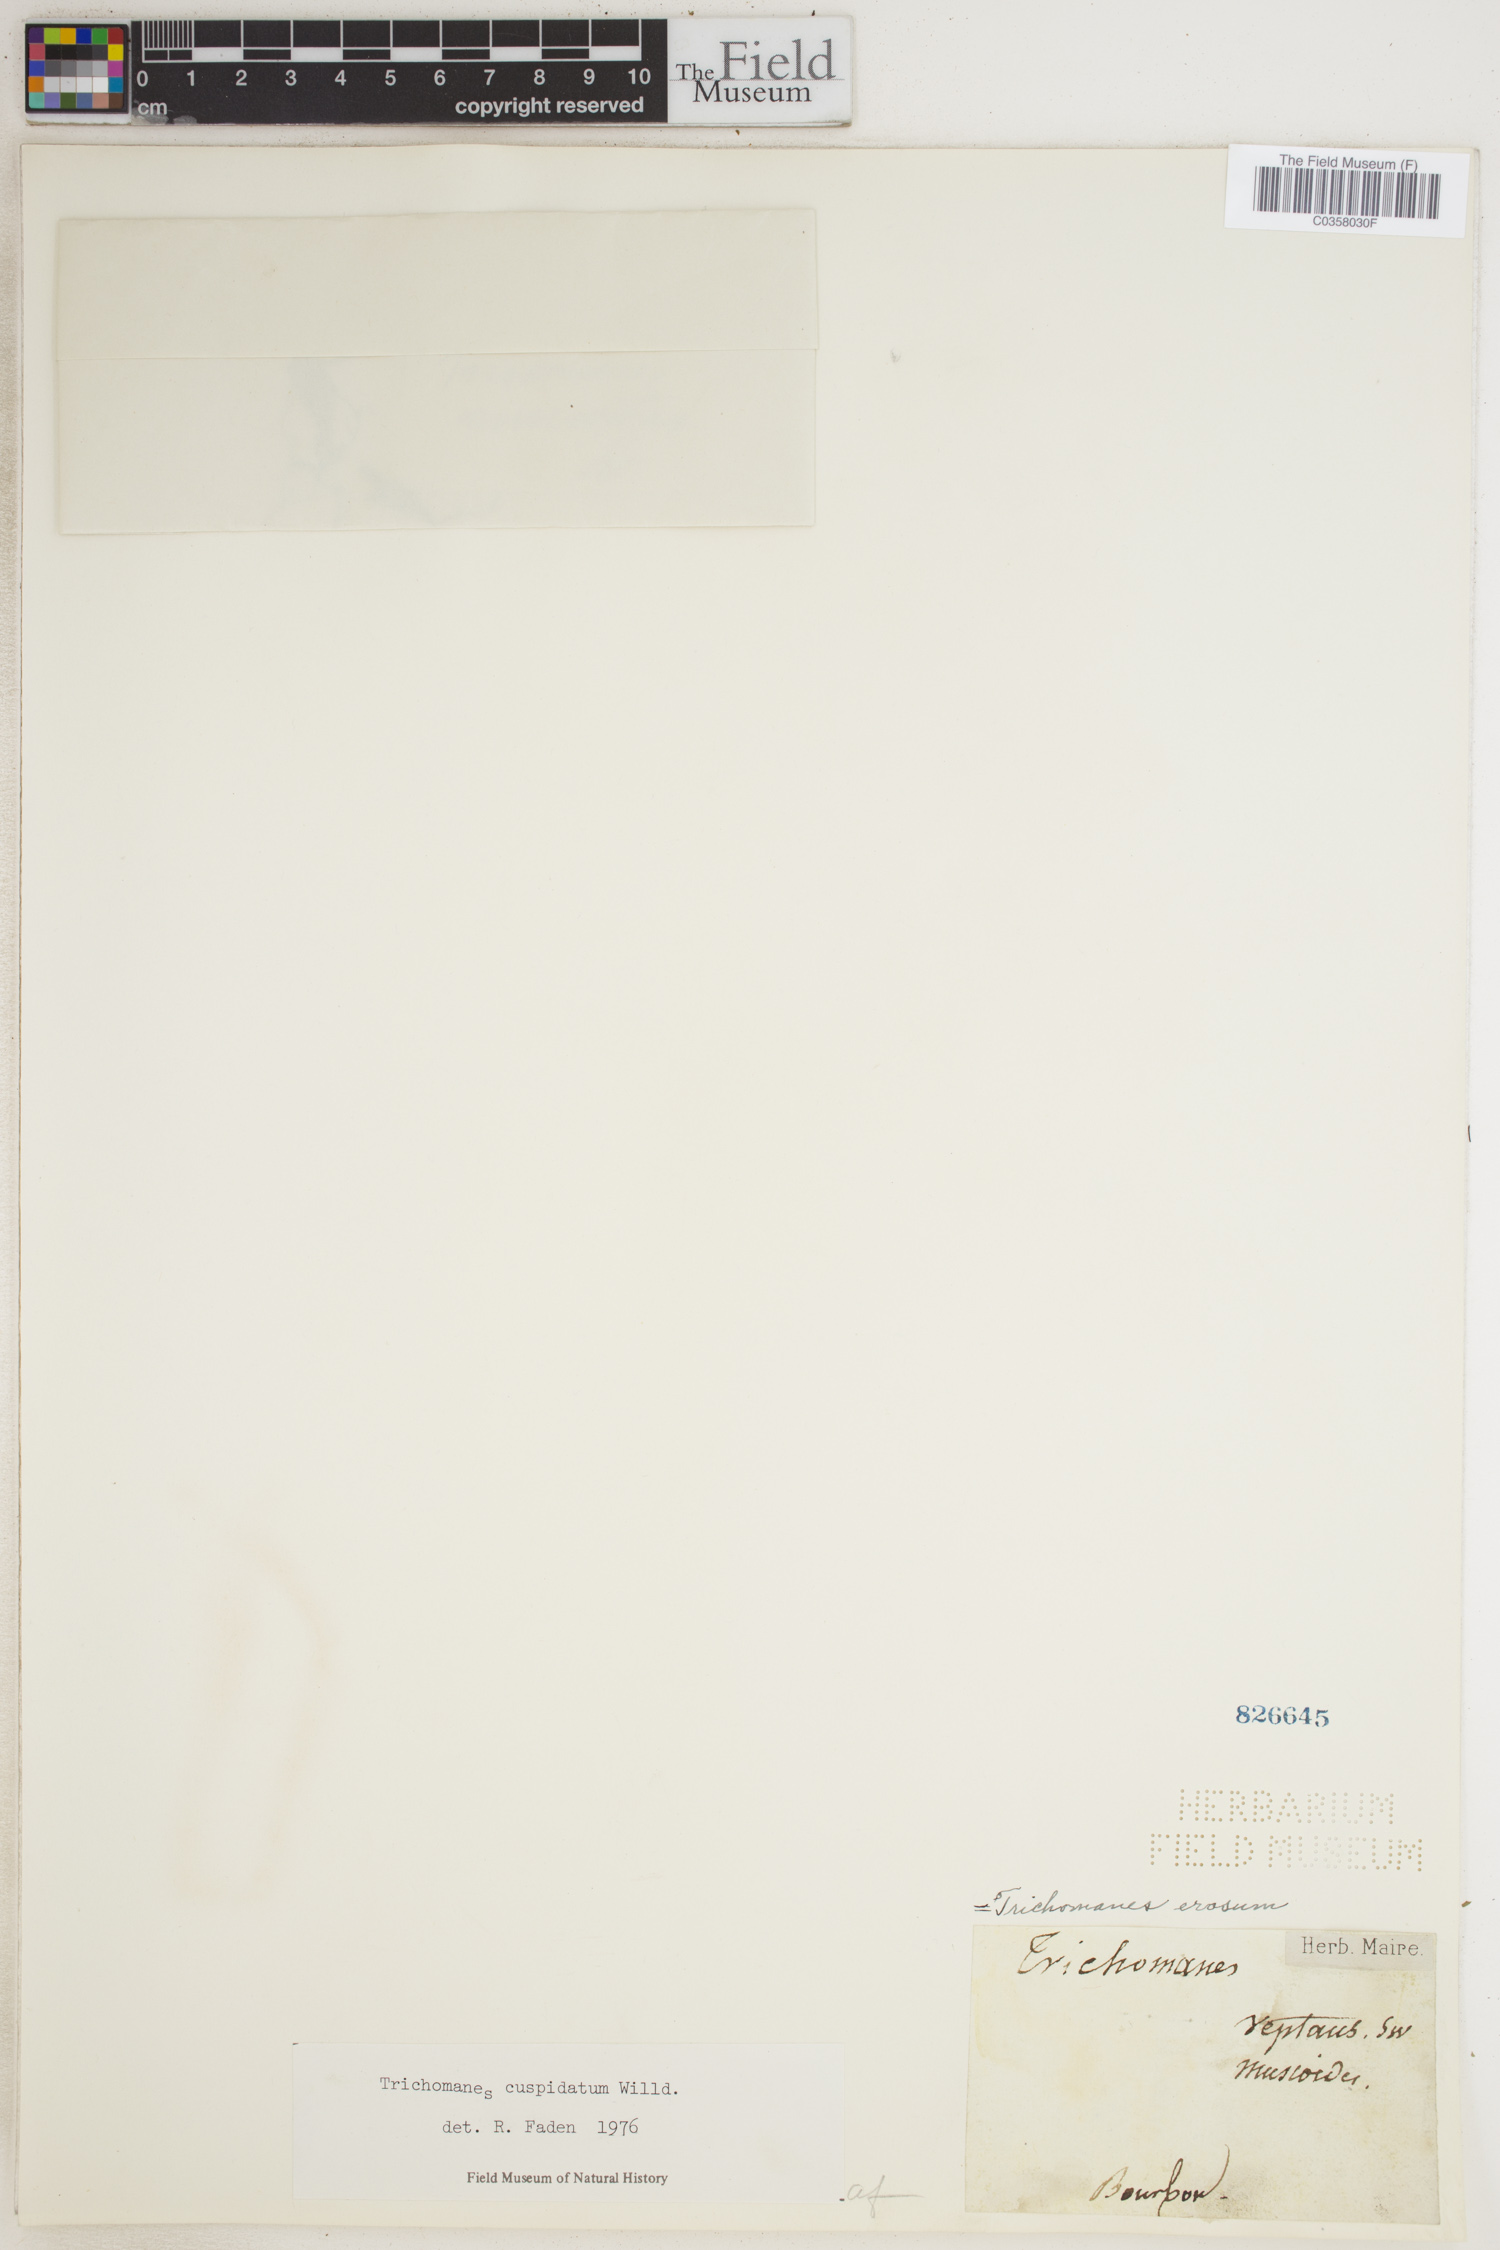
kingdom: Plantae
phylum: Tracheophyta
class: Polypodiopsida
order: Hymenophyllales
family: Hymenophyllaceae
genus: Didymoglossum
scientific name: Didymoglossum cuspidatum
